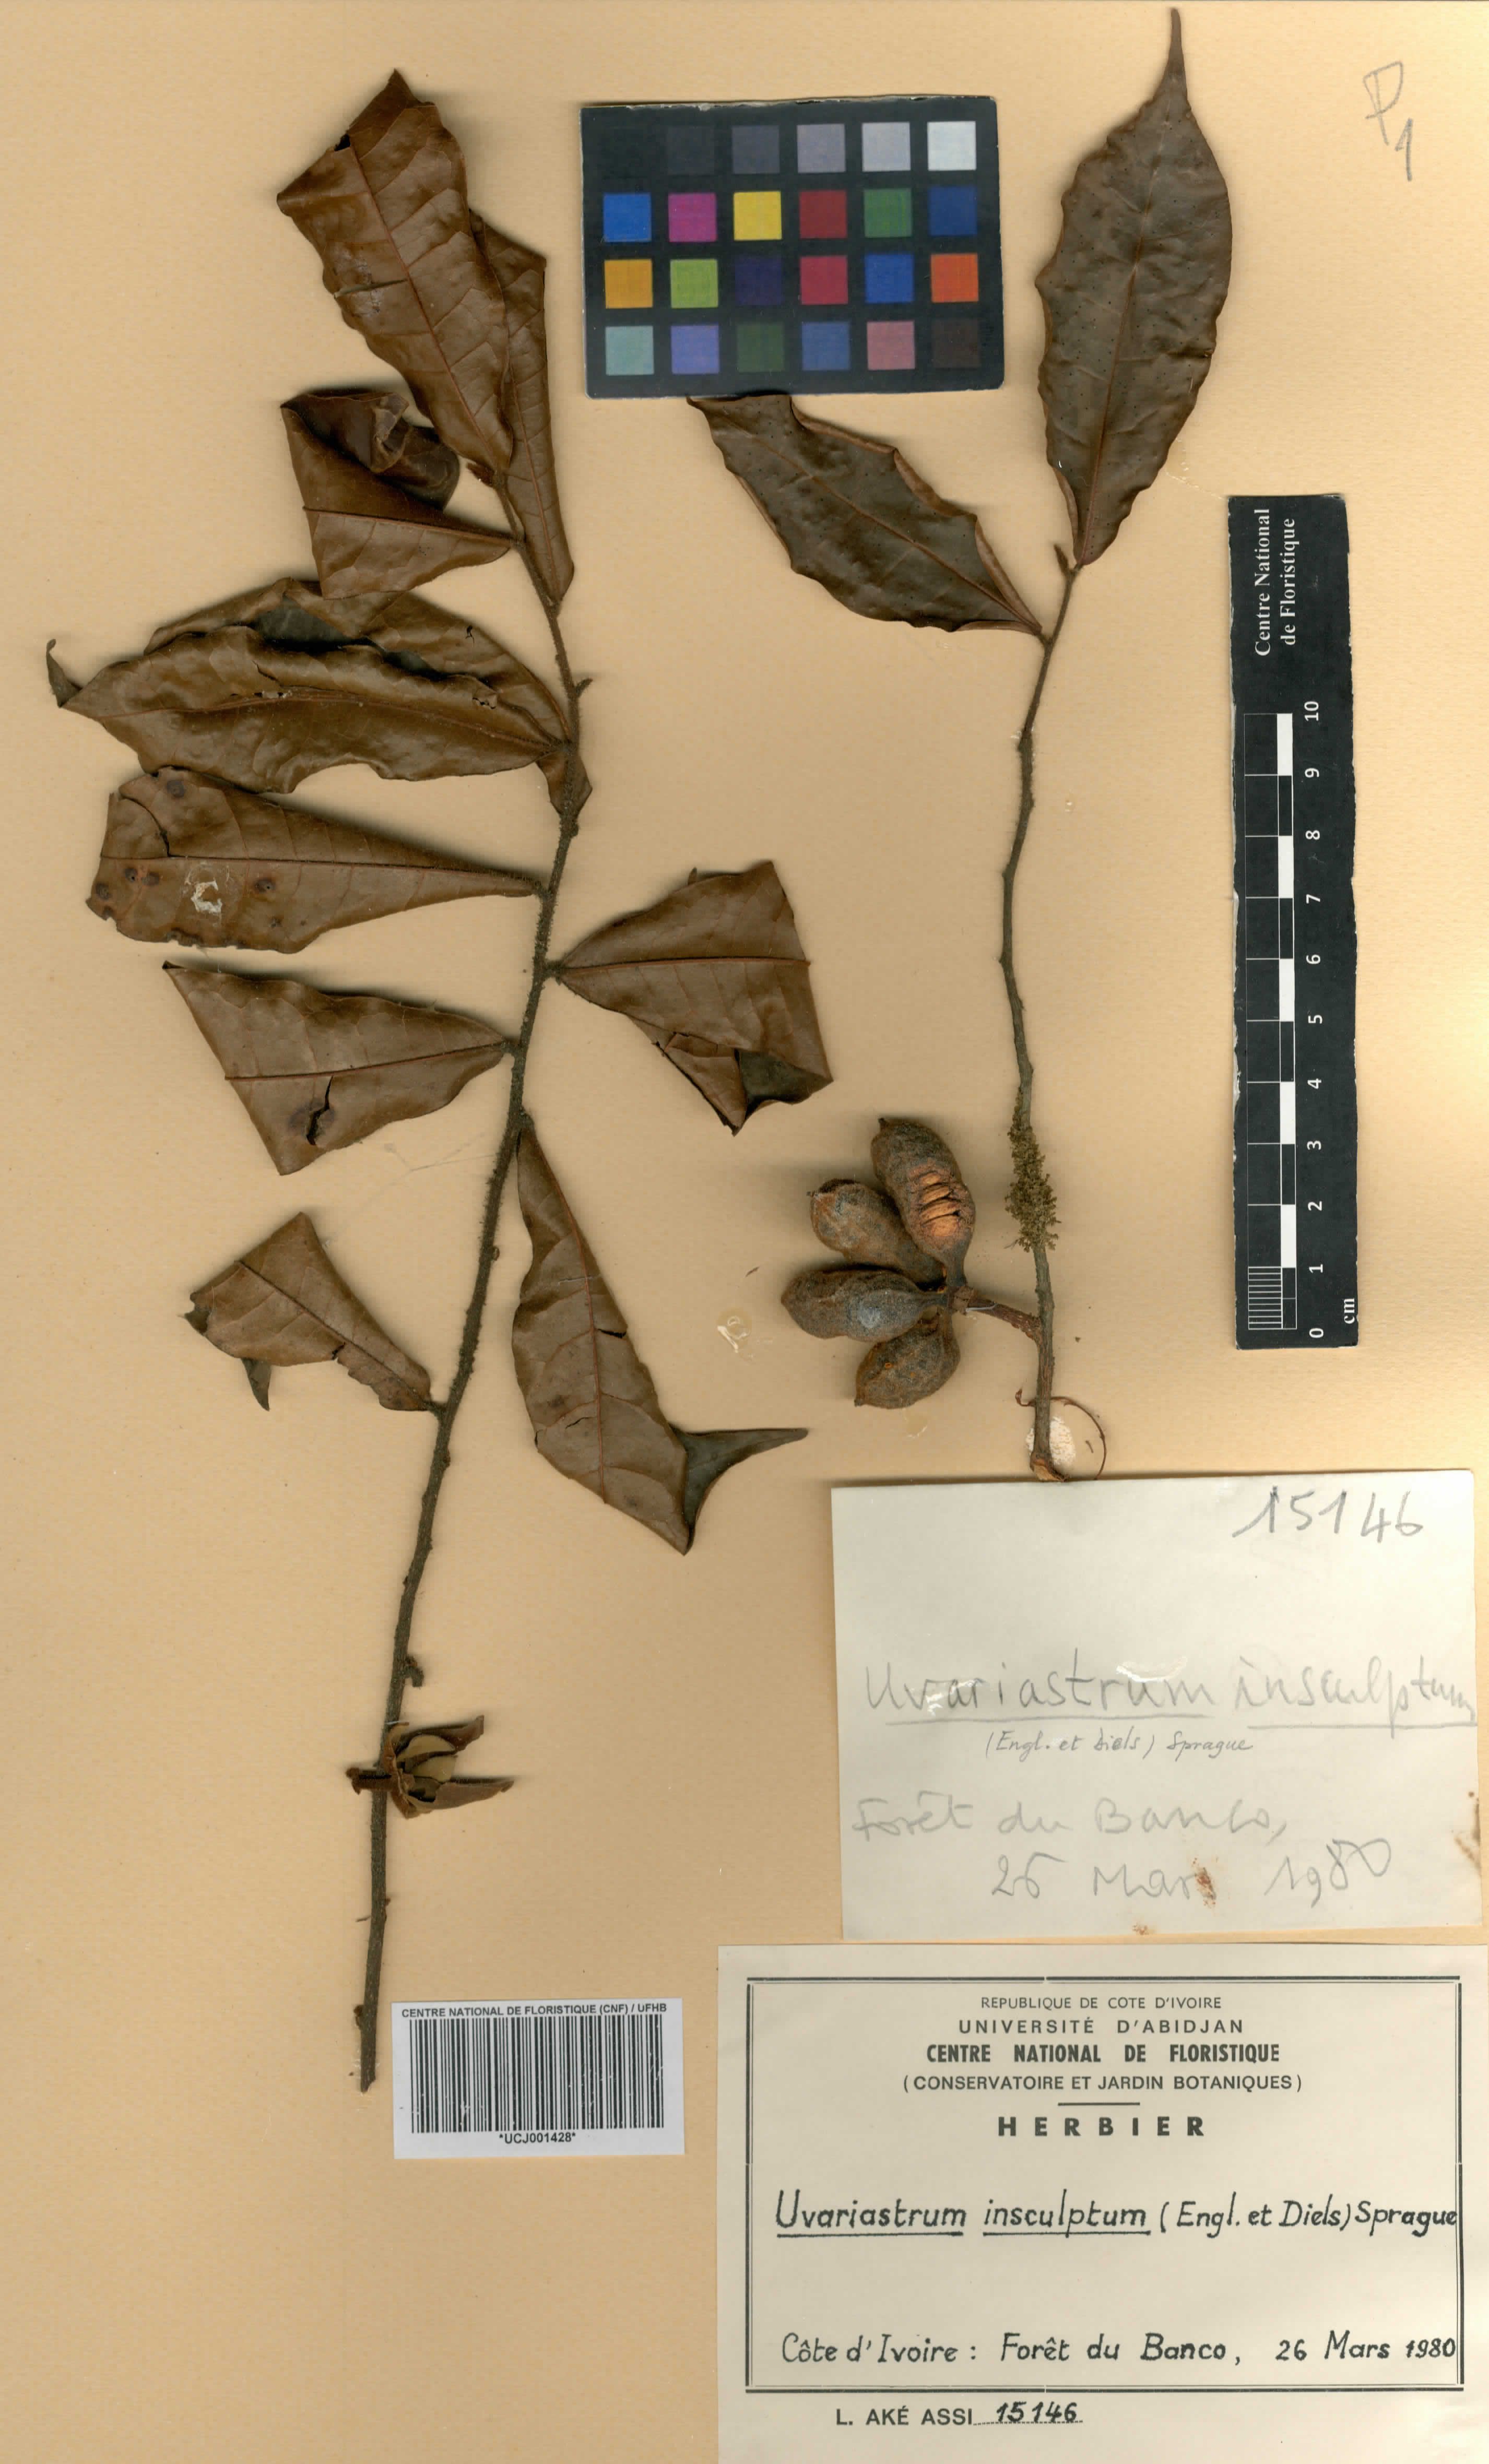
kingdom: Plantae
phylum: Tracheophyta
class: Magnoliopsida
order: Magnoliales
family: Annonaceae
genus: Uvariastrum
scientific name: Uvariastrum pierreanum
